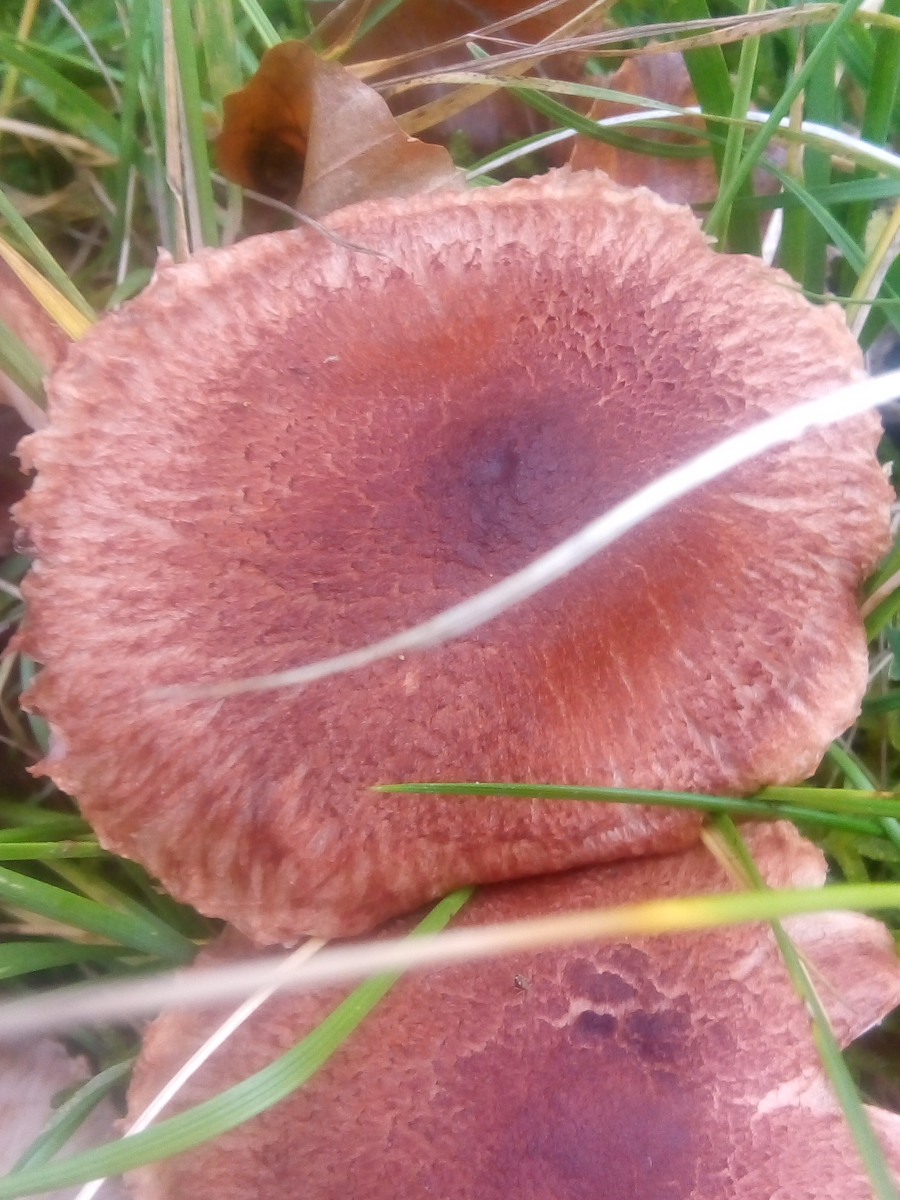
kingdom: Fungi
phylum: Basidiomycota
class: Agaricomycetes
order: Agaricales
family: Tricholomataceae
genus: Tricholoma
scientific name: Tricholoma vaccinum
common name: ko-ridderhat
